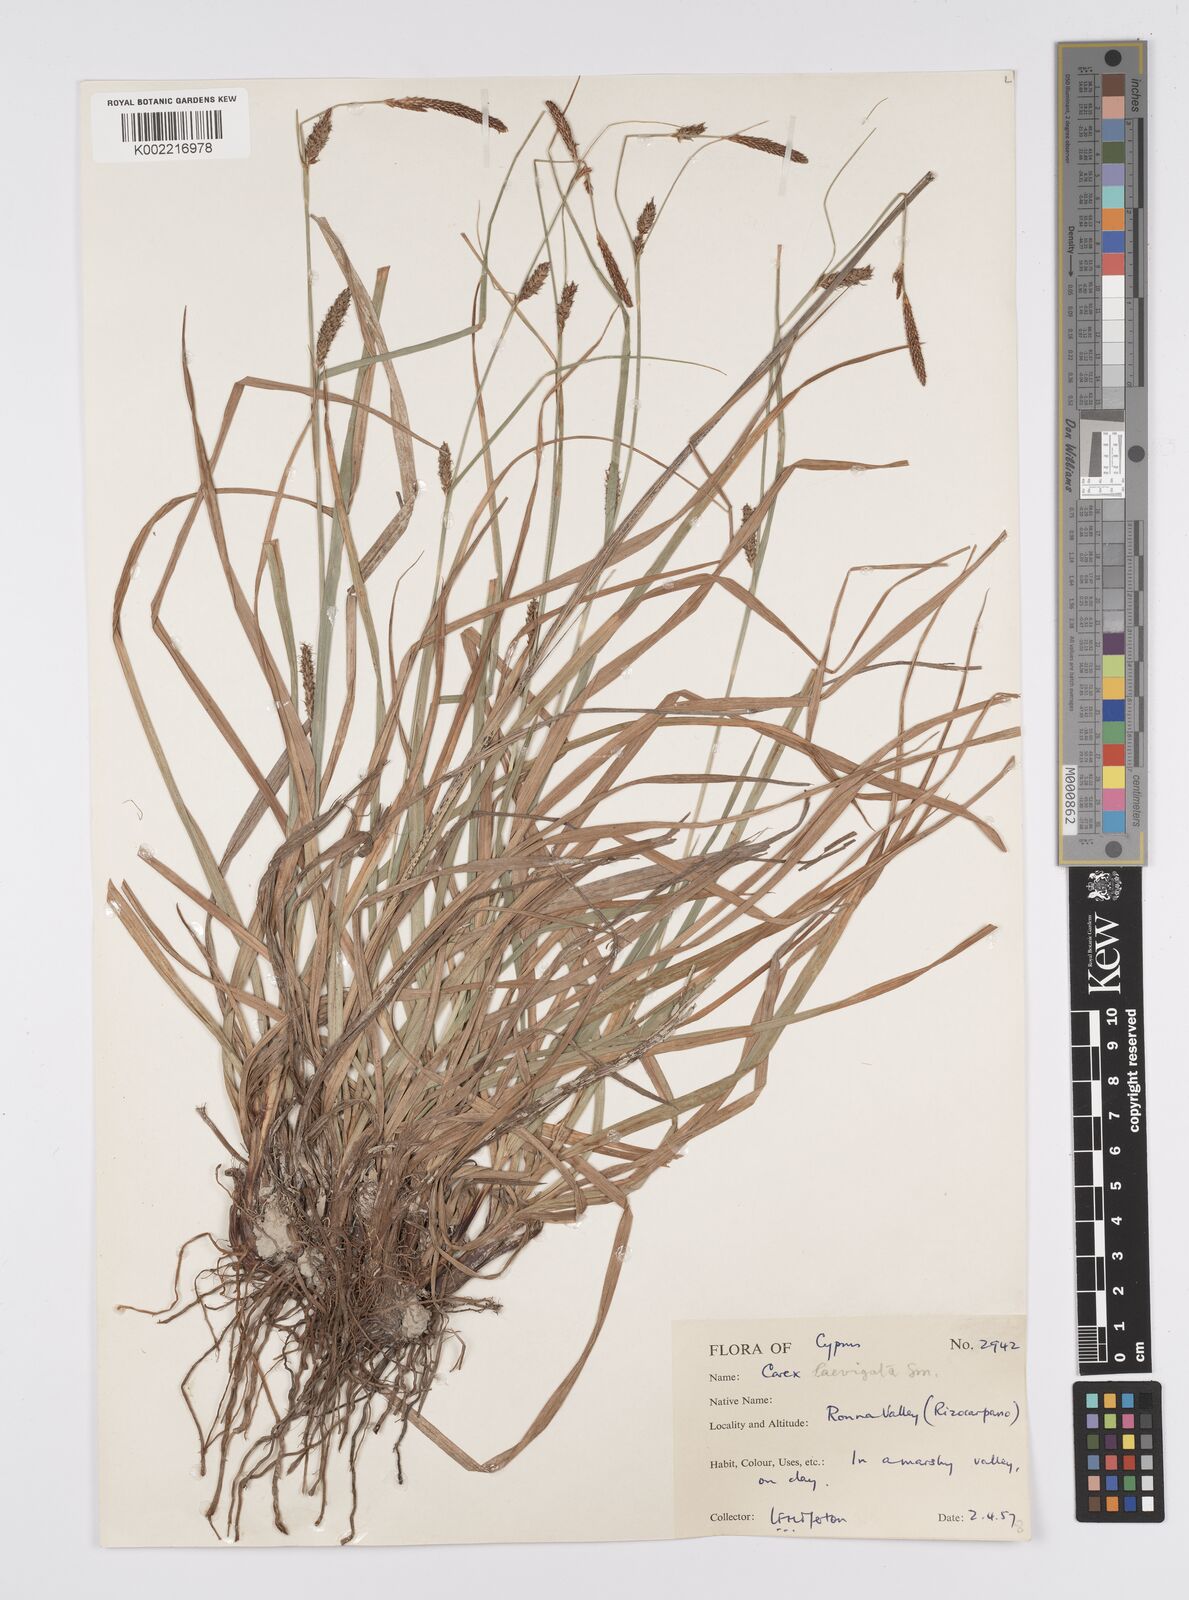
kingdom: Plantae
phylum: Tracheophyta
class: Liliopsida
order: Poales
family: Cyperaceae
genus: Carex
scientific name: Carex distans
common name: Distant sedge
